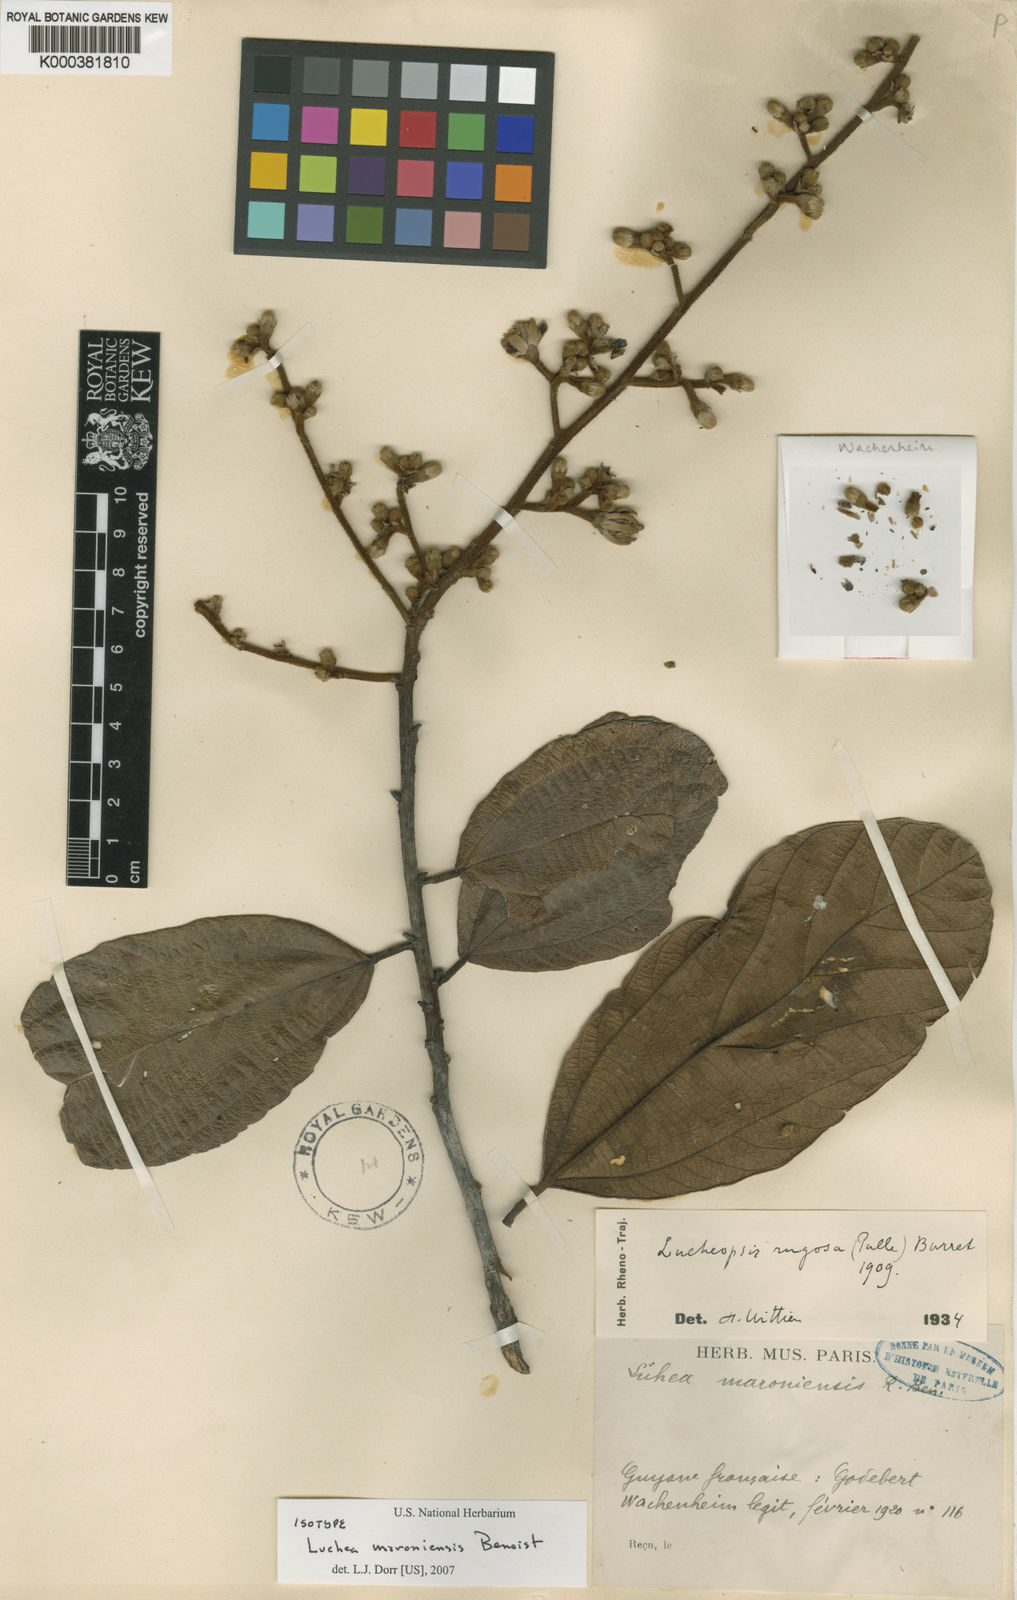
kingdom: Plantae
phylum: Tracheophyta
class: Magnoliopsida
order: Malvales
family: Malvaceae
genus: Lueheopsis
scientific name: Lueheopsis rugosa
